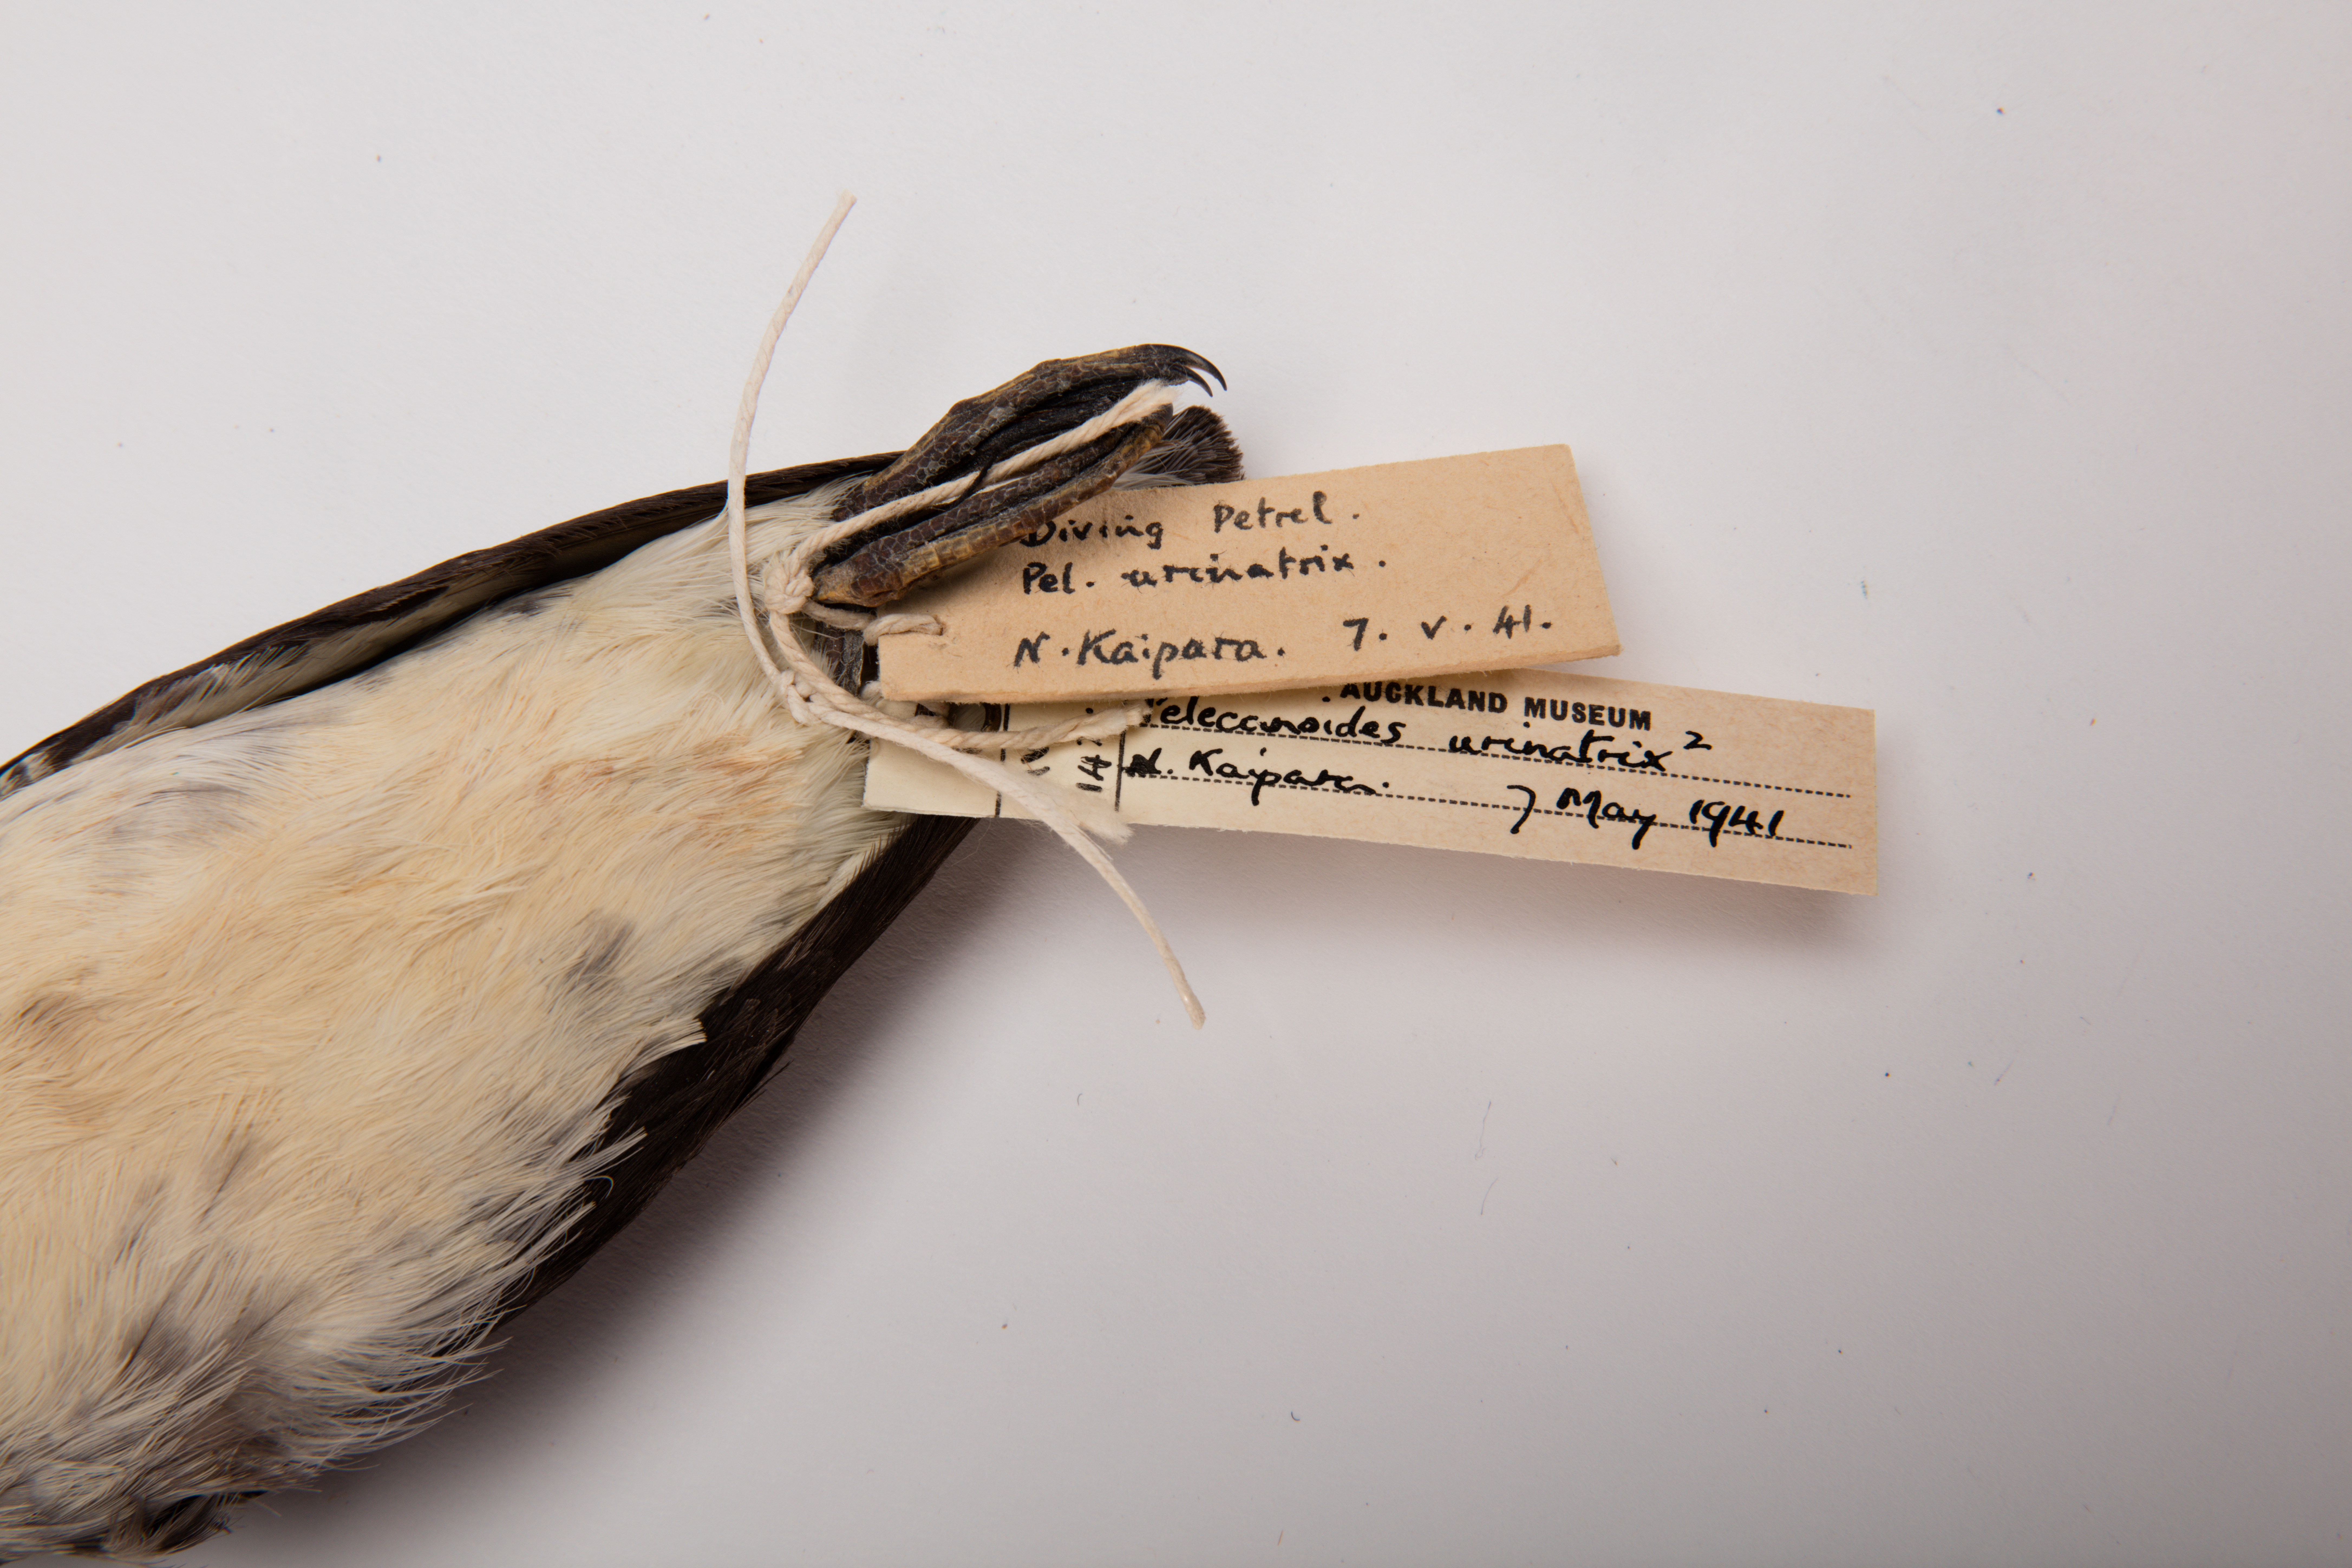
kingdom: Animalia
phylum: Chordata
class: Aves
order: Procellariiformes
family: Pelecanoididae
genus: Pelecanoides
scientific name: Pelecanoides urinatrix
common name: Common diving-petrel
